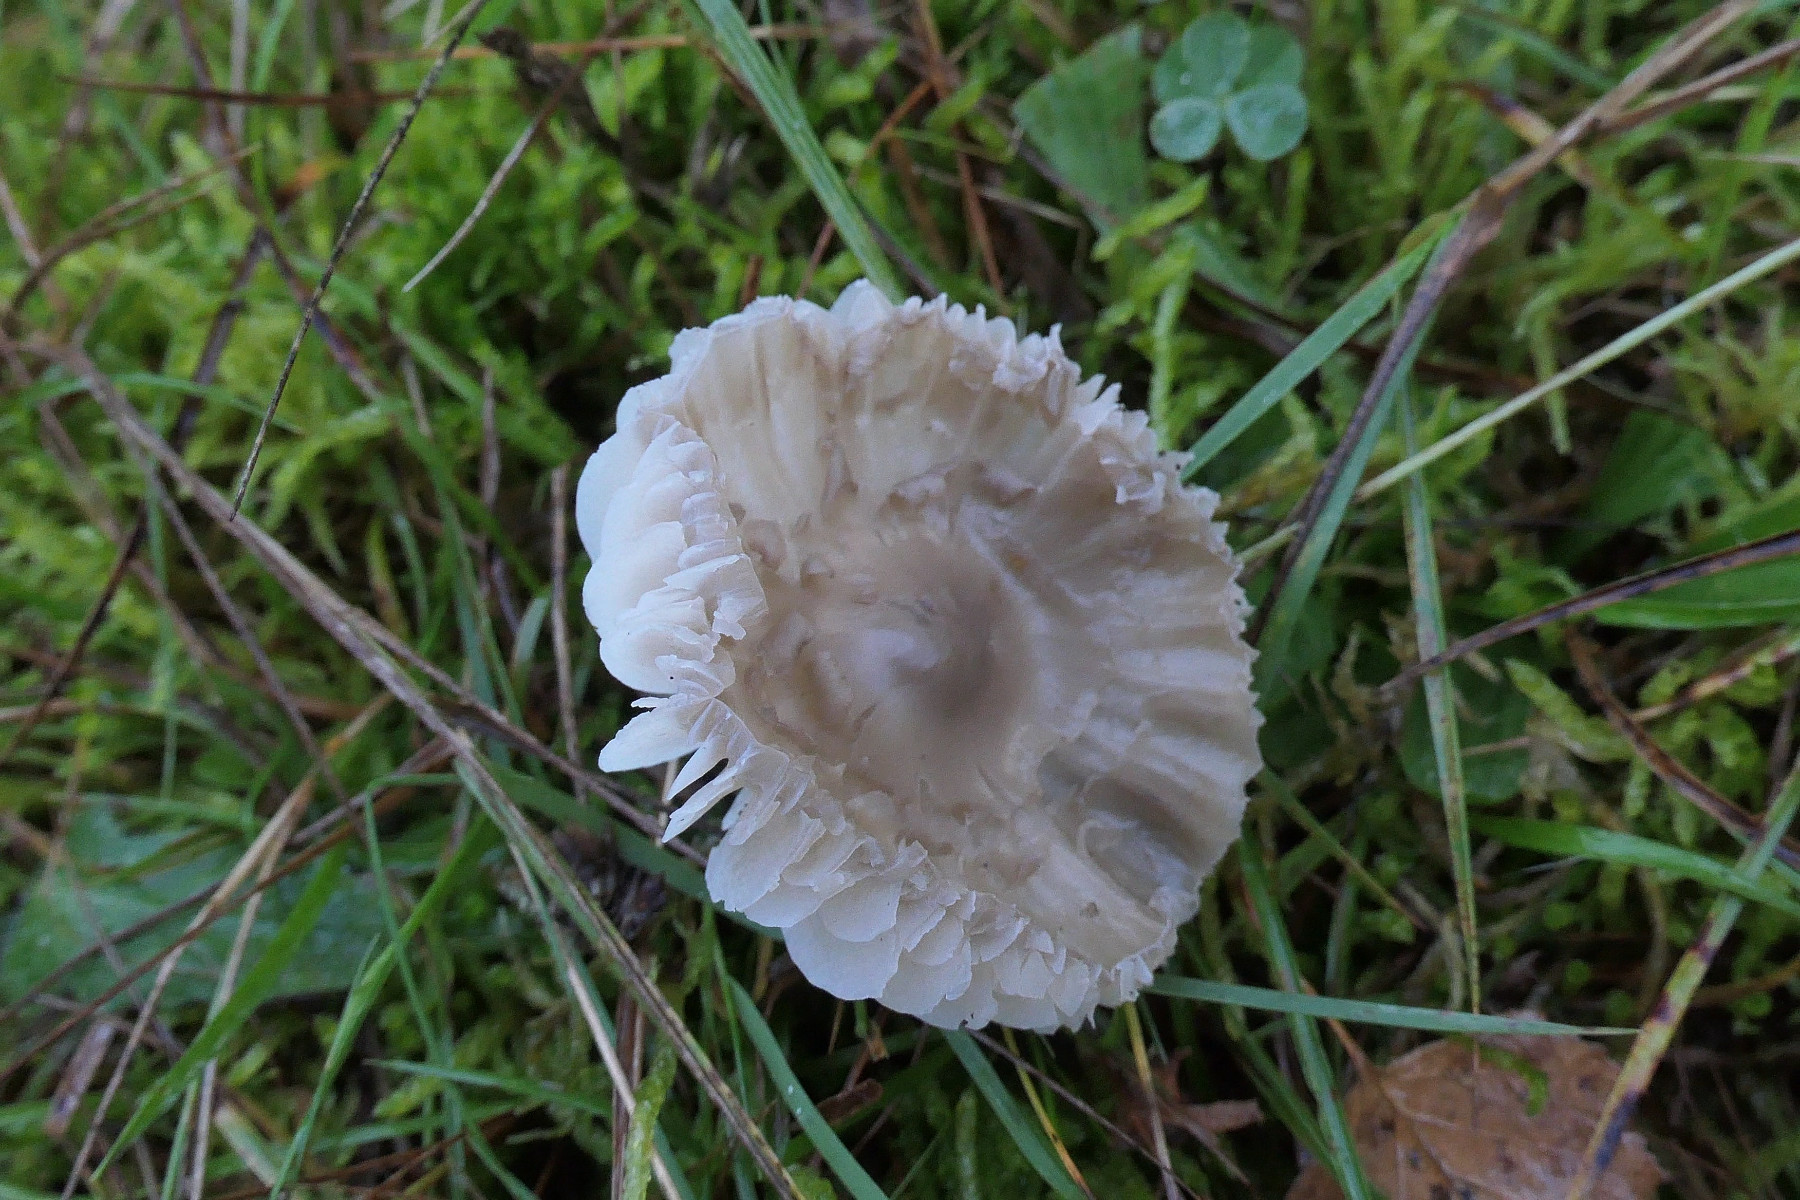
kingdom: Fungi
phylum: Basidiomycota
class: Agaricomycetes
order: Agaricales
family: Hygrophoraceae
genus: Gliophorus
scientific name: Gliophorus irrigatus
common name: slimet vokshat
